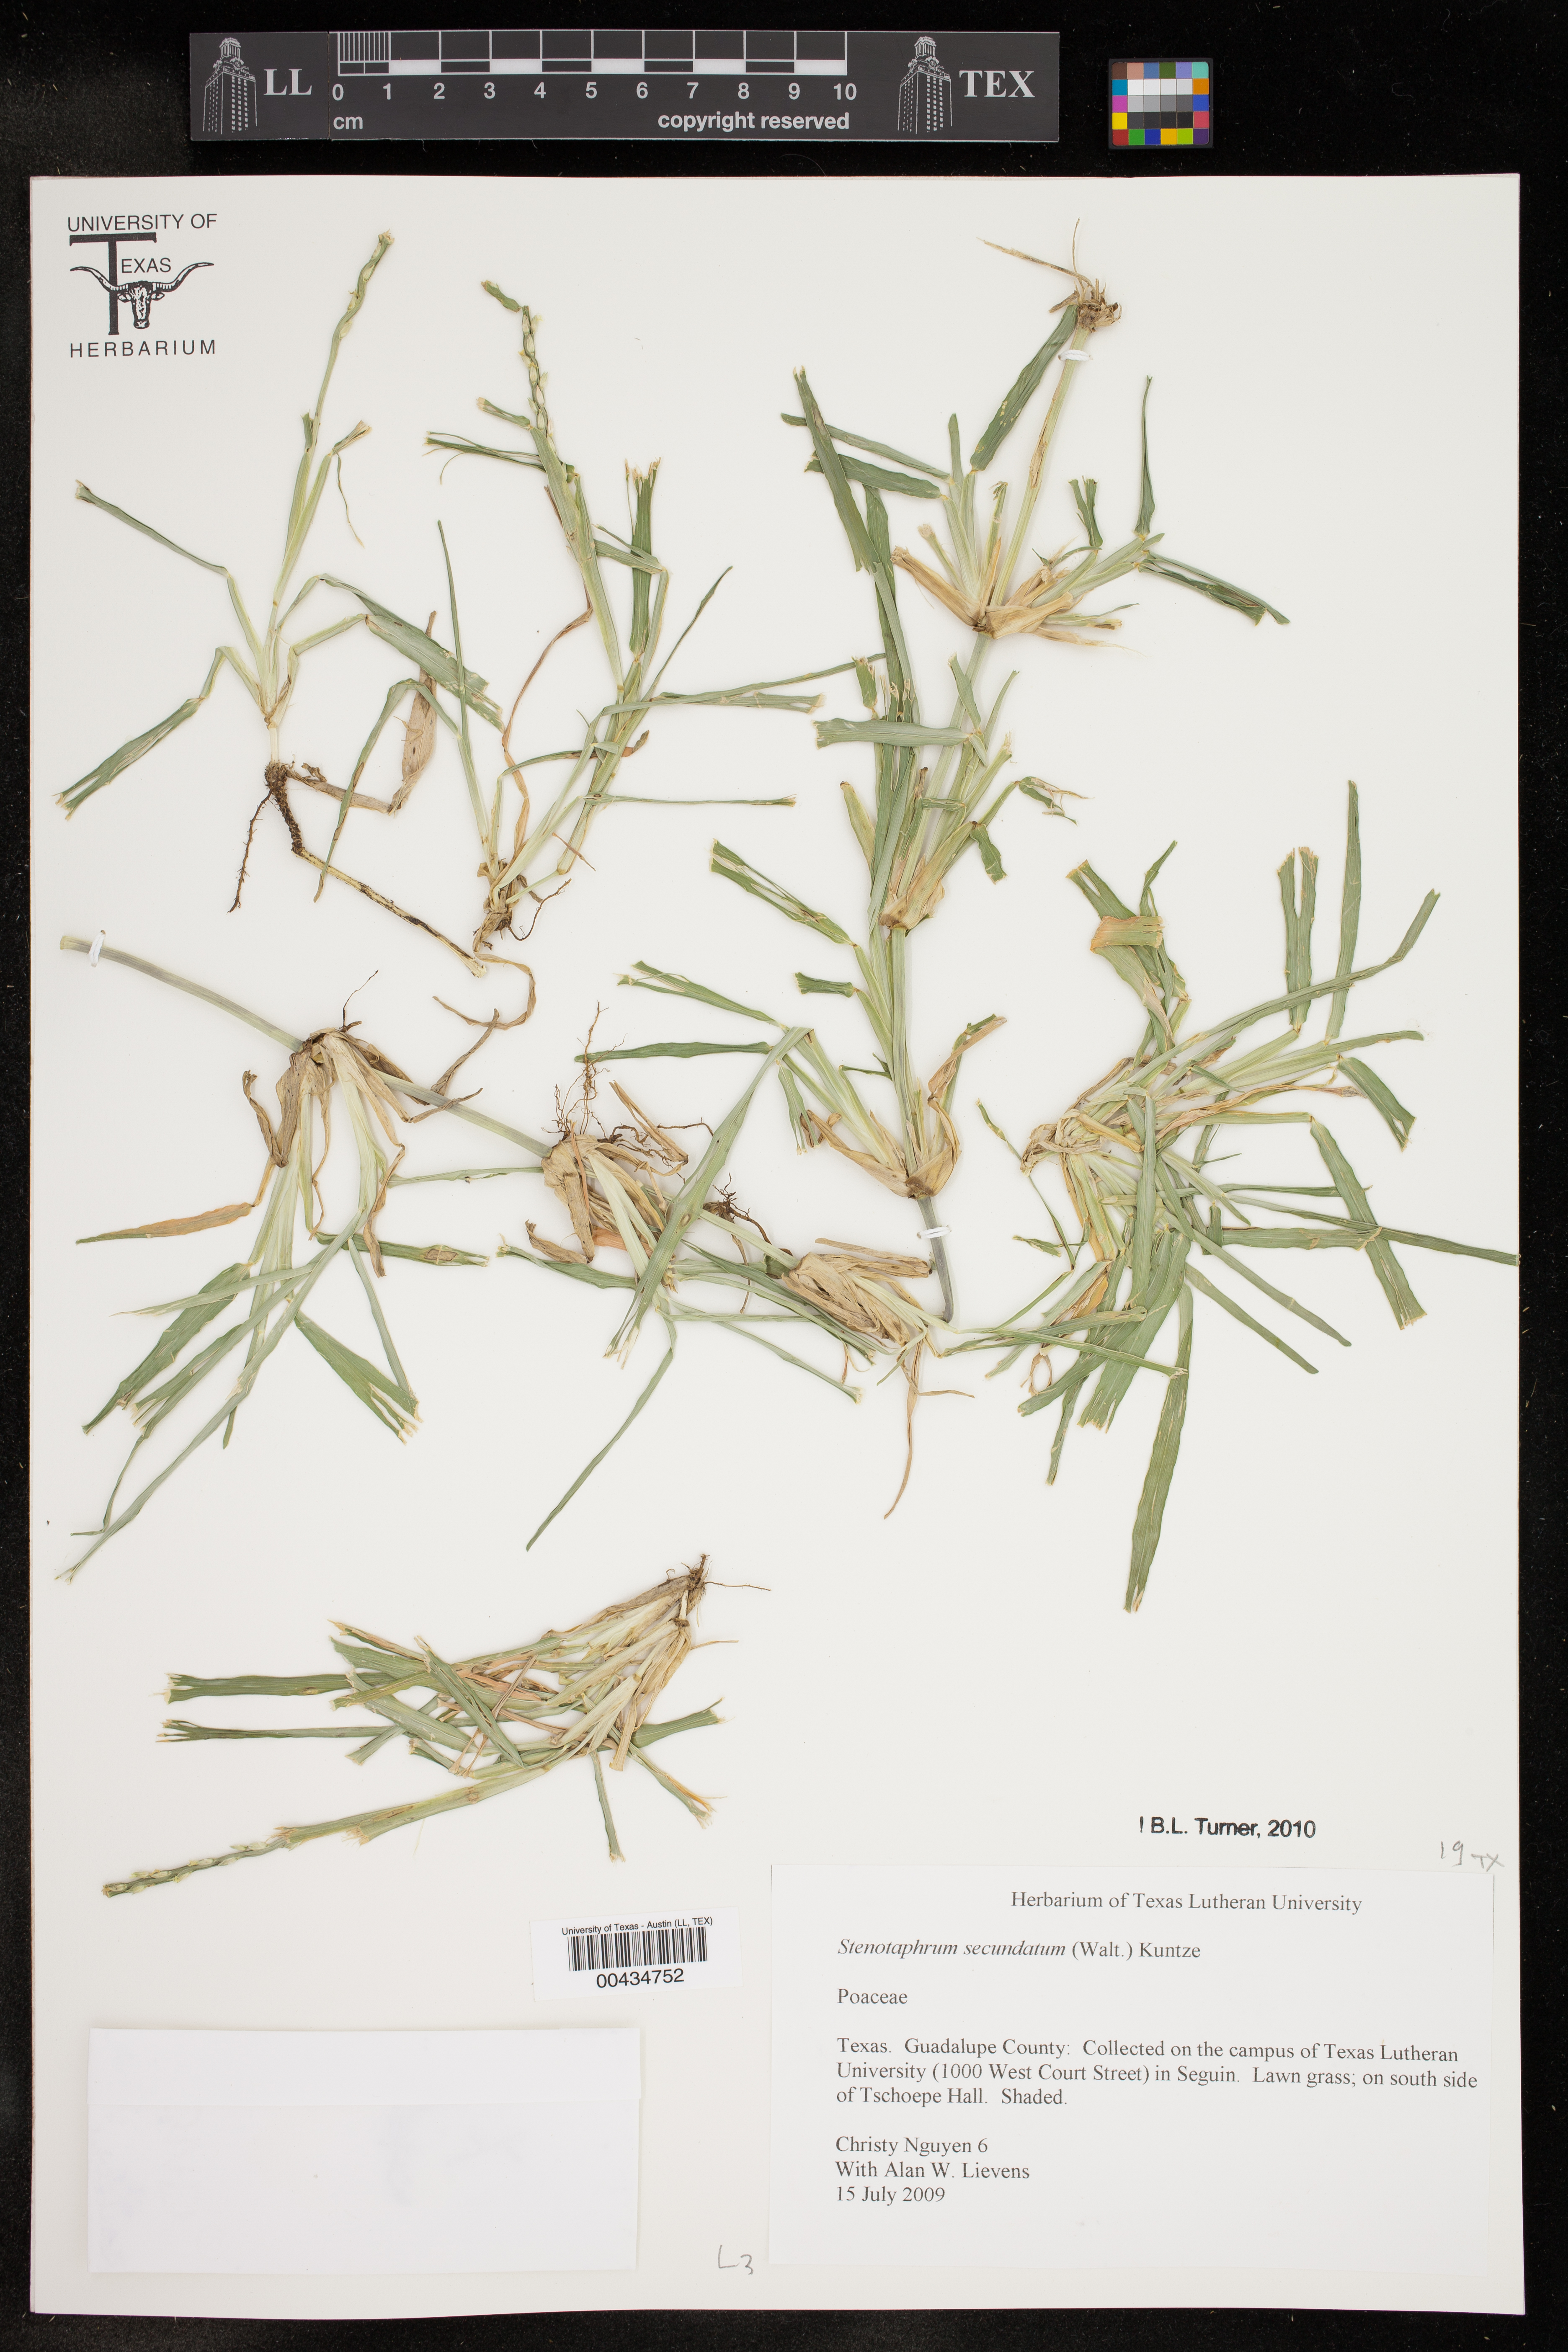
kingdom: Plantae
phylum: Tracheophyta
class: Liliopsida
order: Poales
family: Poaceae
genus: Stenotaphrum
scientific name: Stenotaphrum secundatum
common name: St. augustine grass
